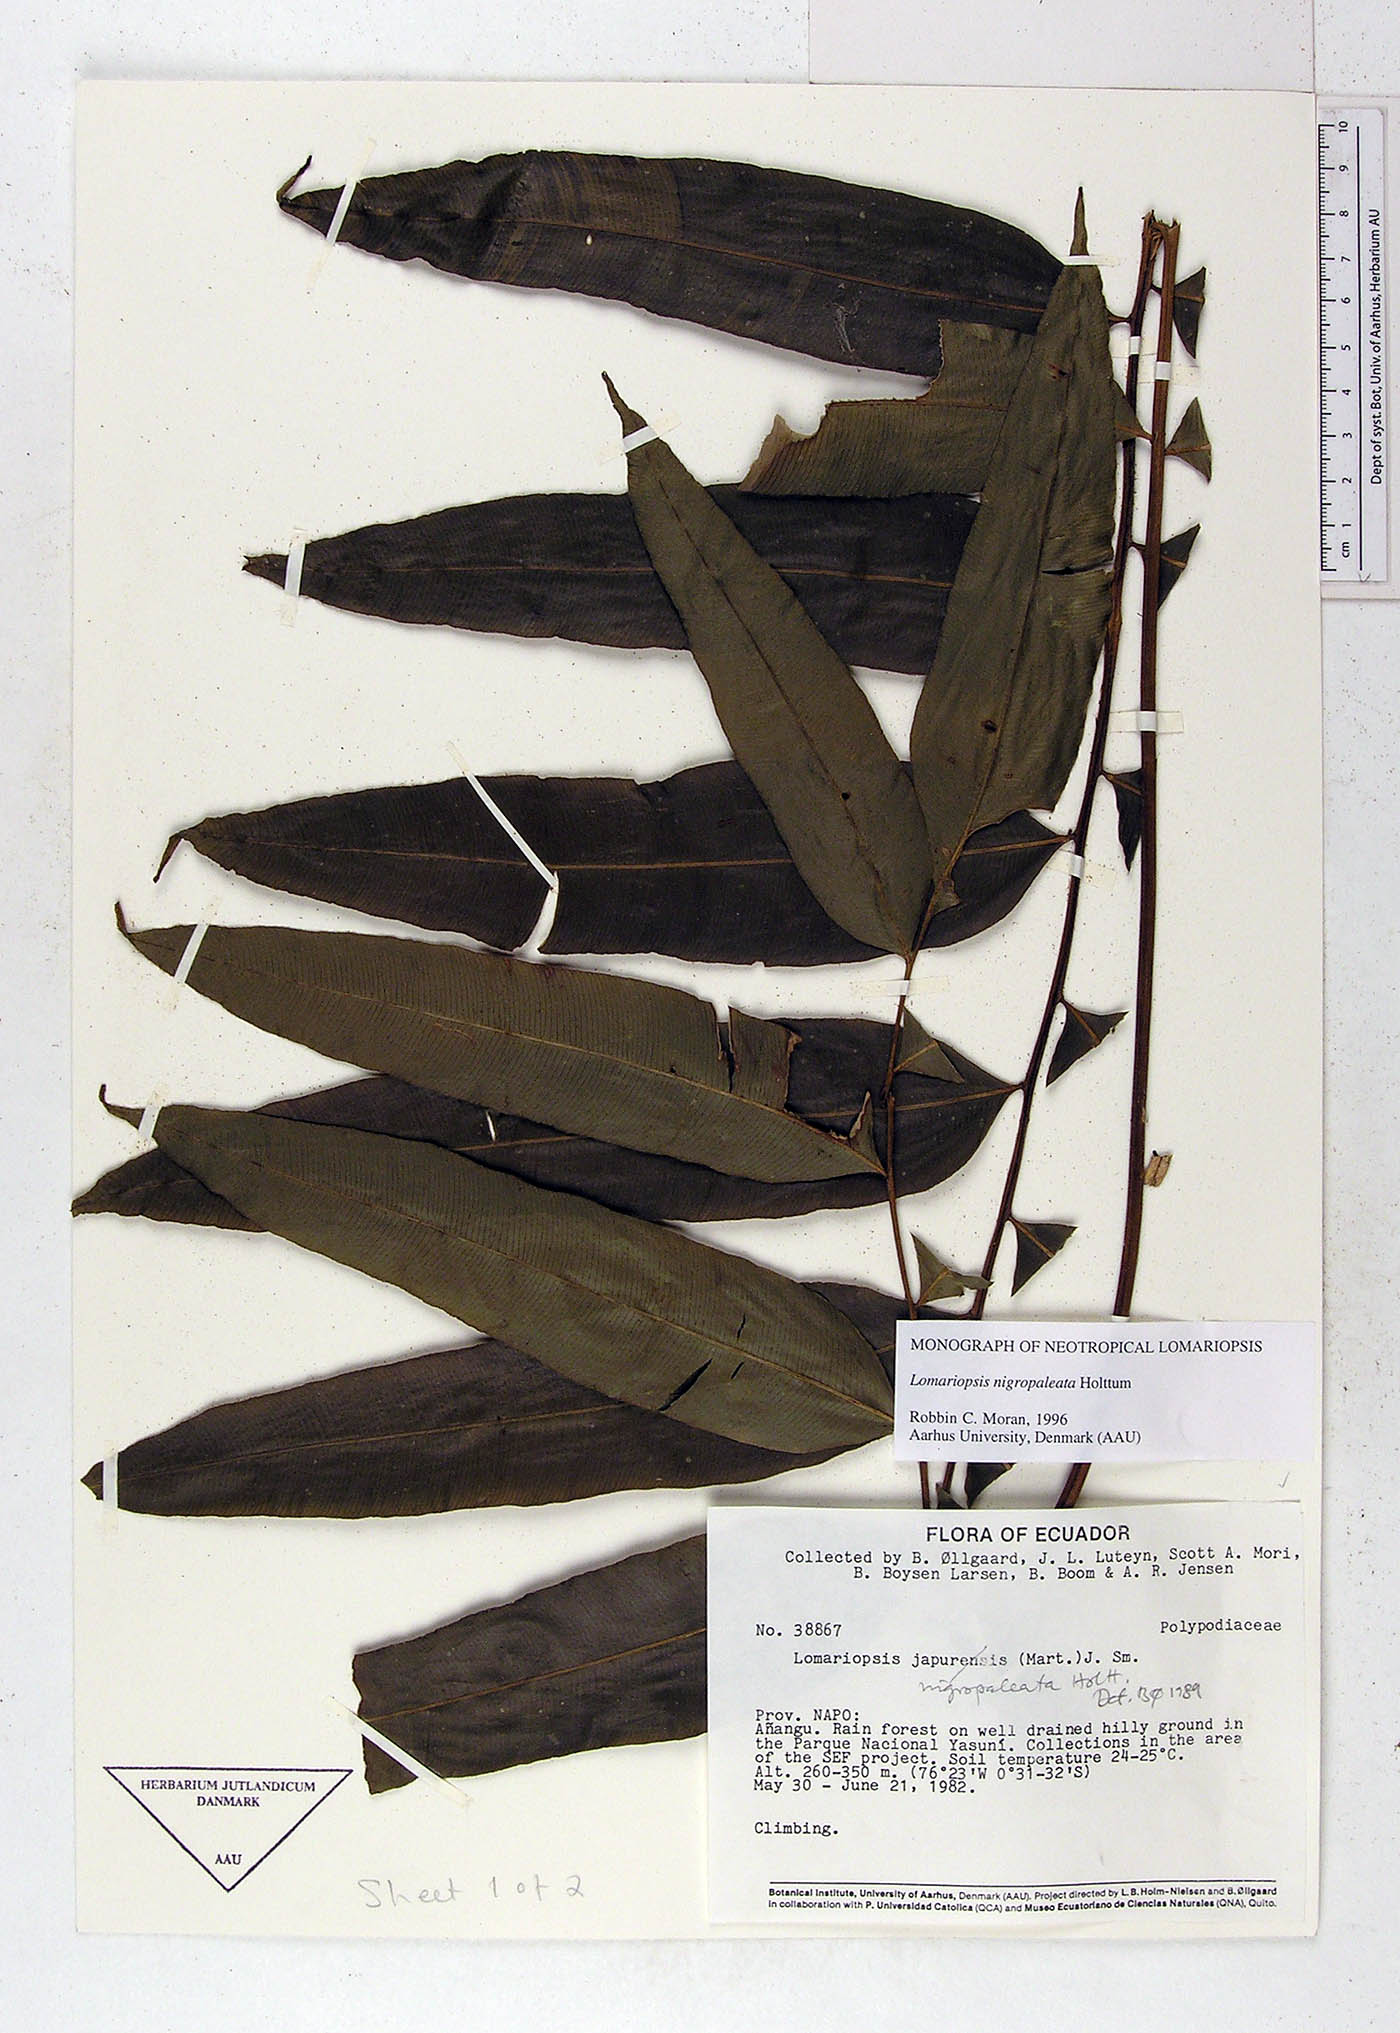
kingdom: Plantae
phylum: Tracheophyta
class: Polypodiopsida
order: Polypodiales
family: Lomariopsidaceae
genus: Lomariopsis
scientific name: Lomariopsis nigropaleata
